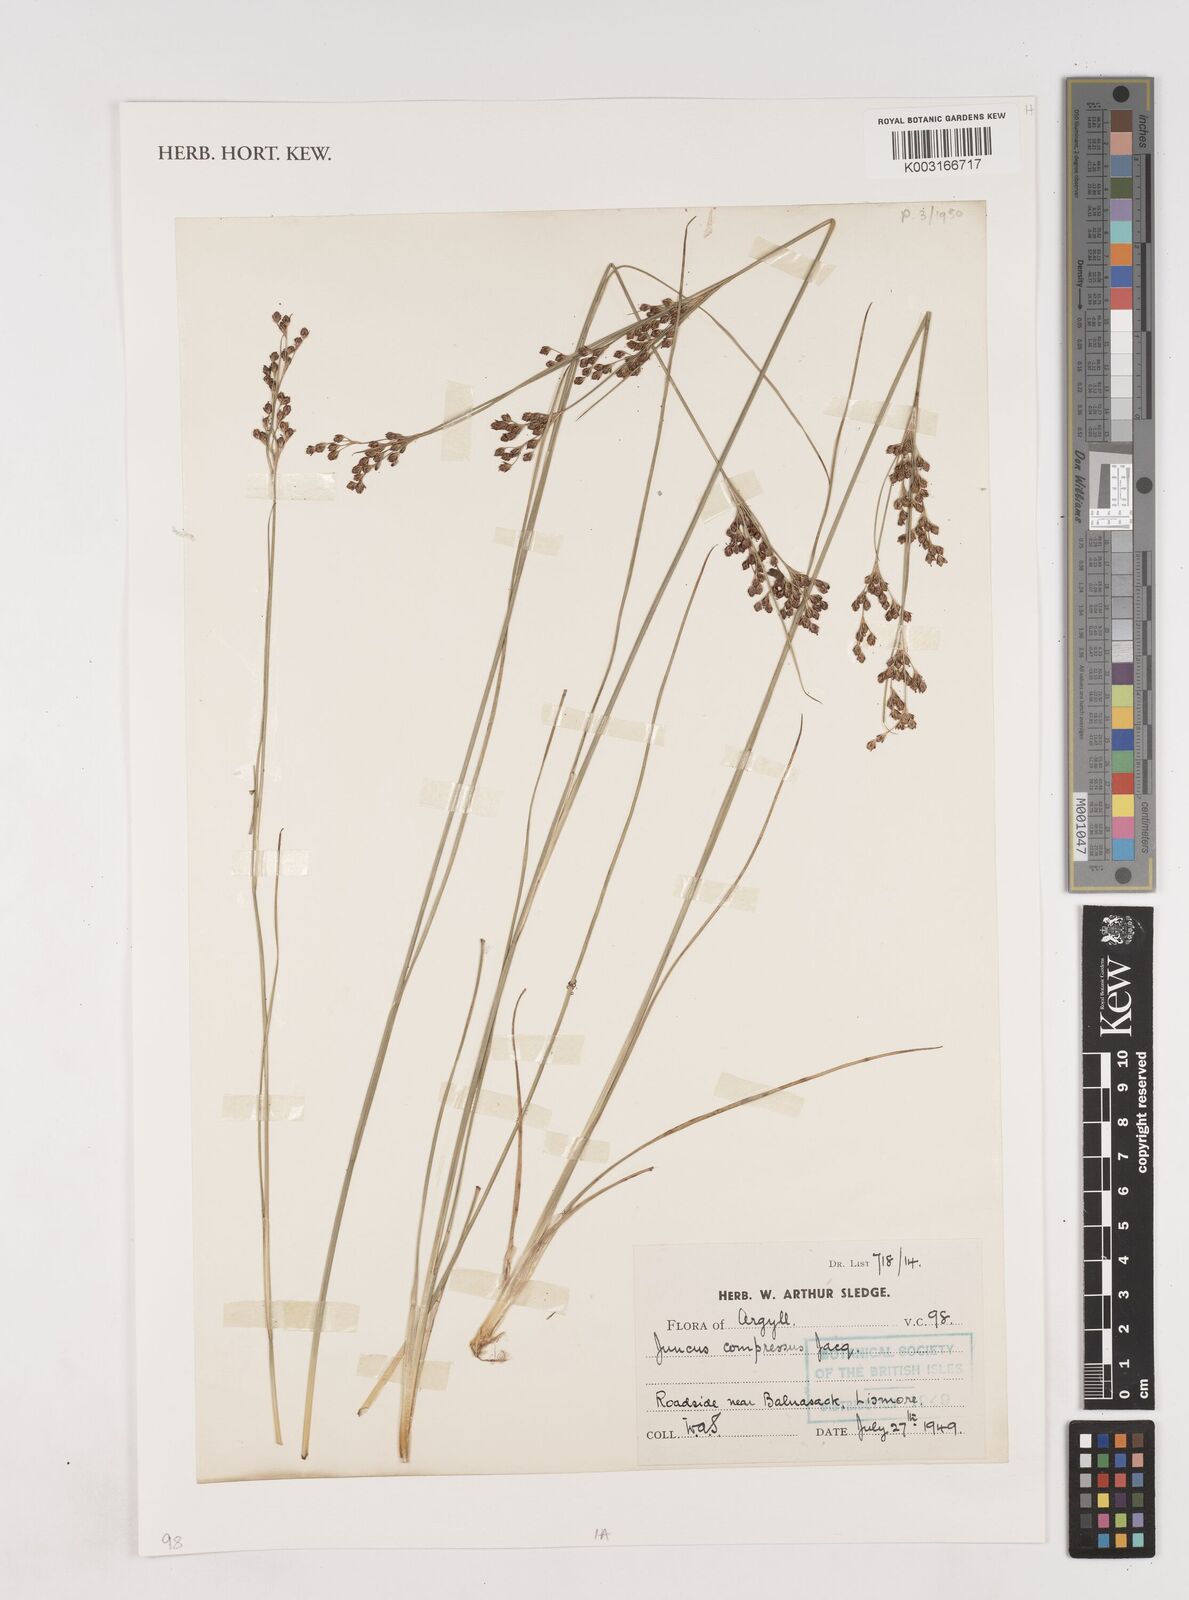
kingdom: Plantae
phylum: Tracheophyta
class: Liliopsida
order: Poales
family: Juncaceae
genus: Juncus
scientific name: Juncus compressus
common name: Round-fruited rush
